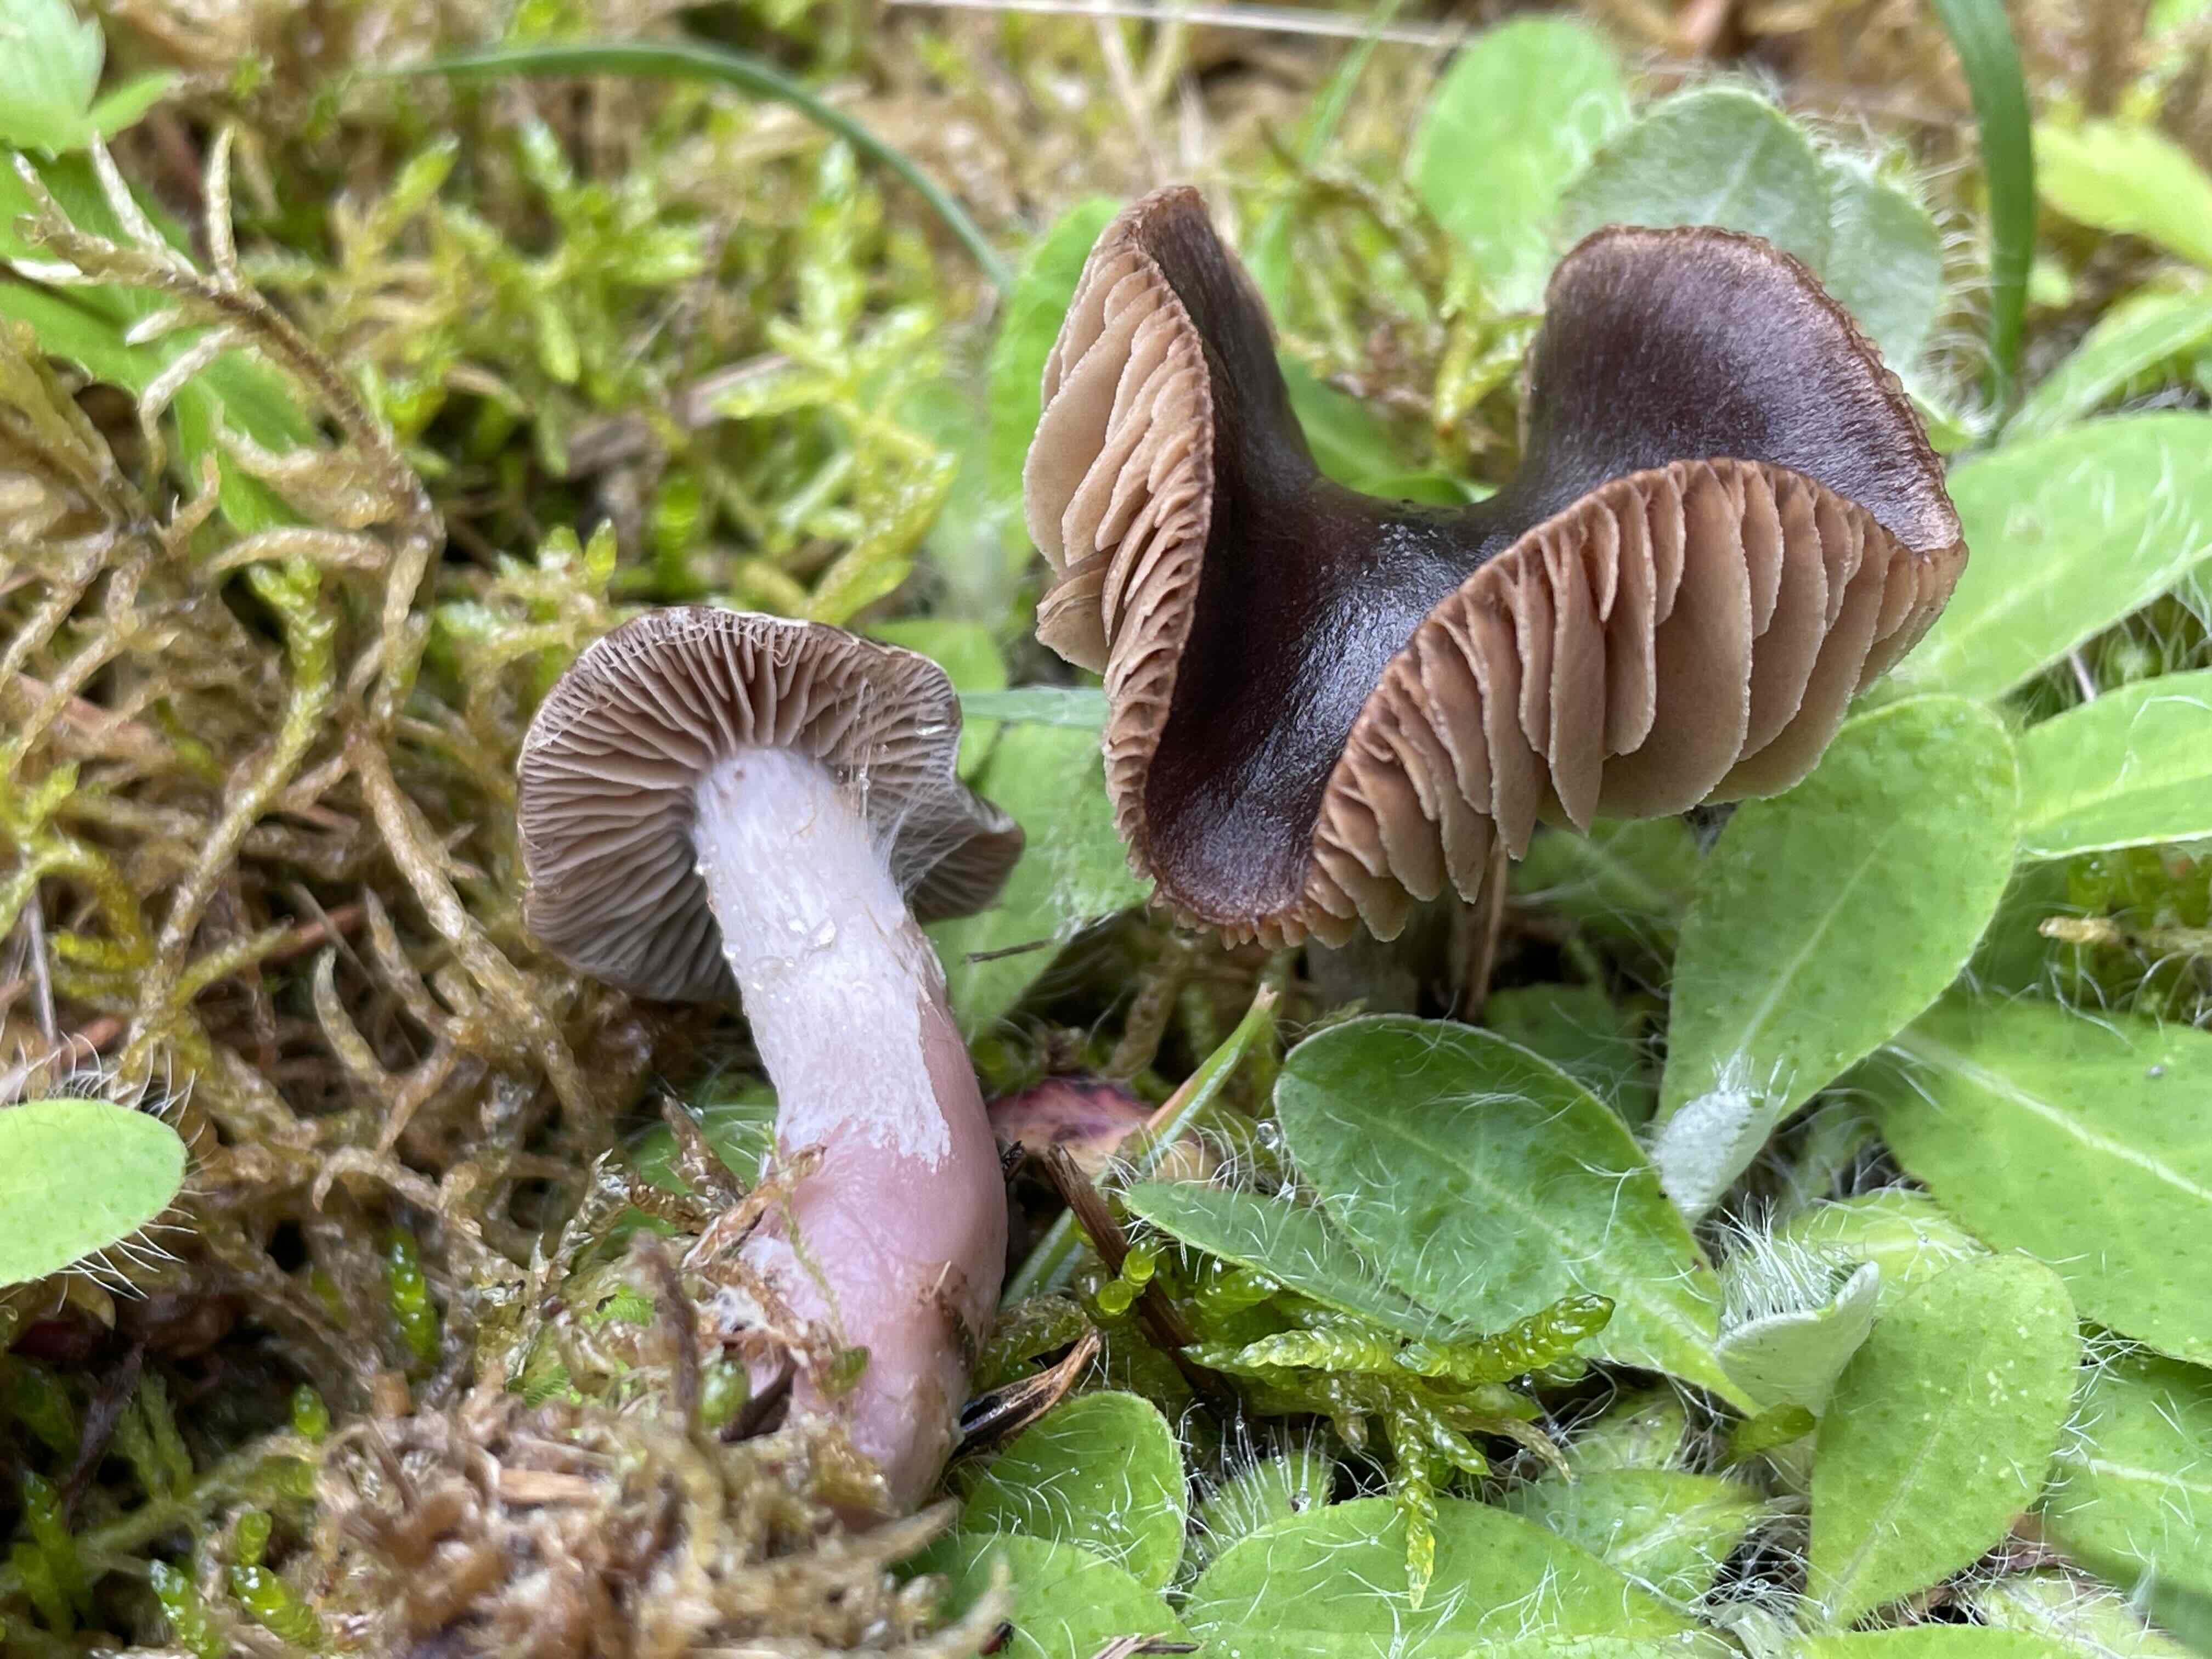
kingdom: Fungi
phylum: Basidiomycota
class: Agaricomycetes
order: Agaricales
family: Cortinariaceae
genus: Cortinarius
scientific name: Cortinarius
